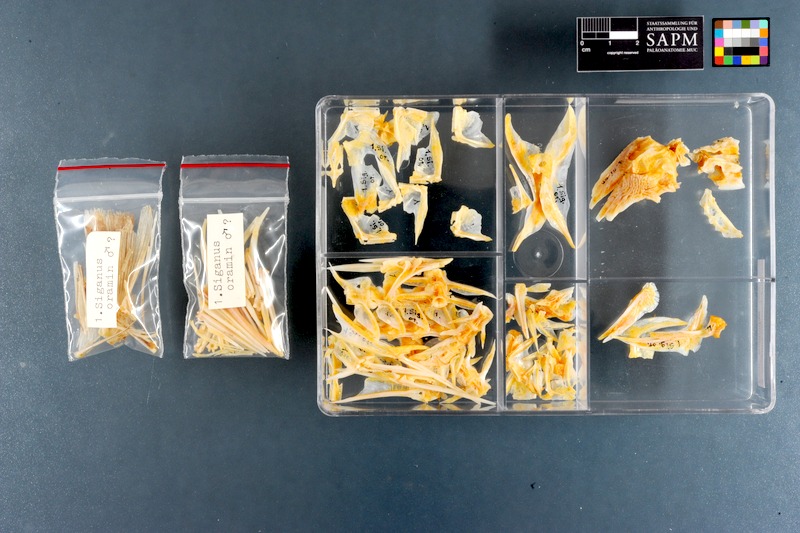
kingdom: Animalia
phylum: Chordata
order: Perciformes
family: Siganidae
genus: Siganus
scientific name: Siganus canaliculatus
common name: White-spotted spinefoot
